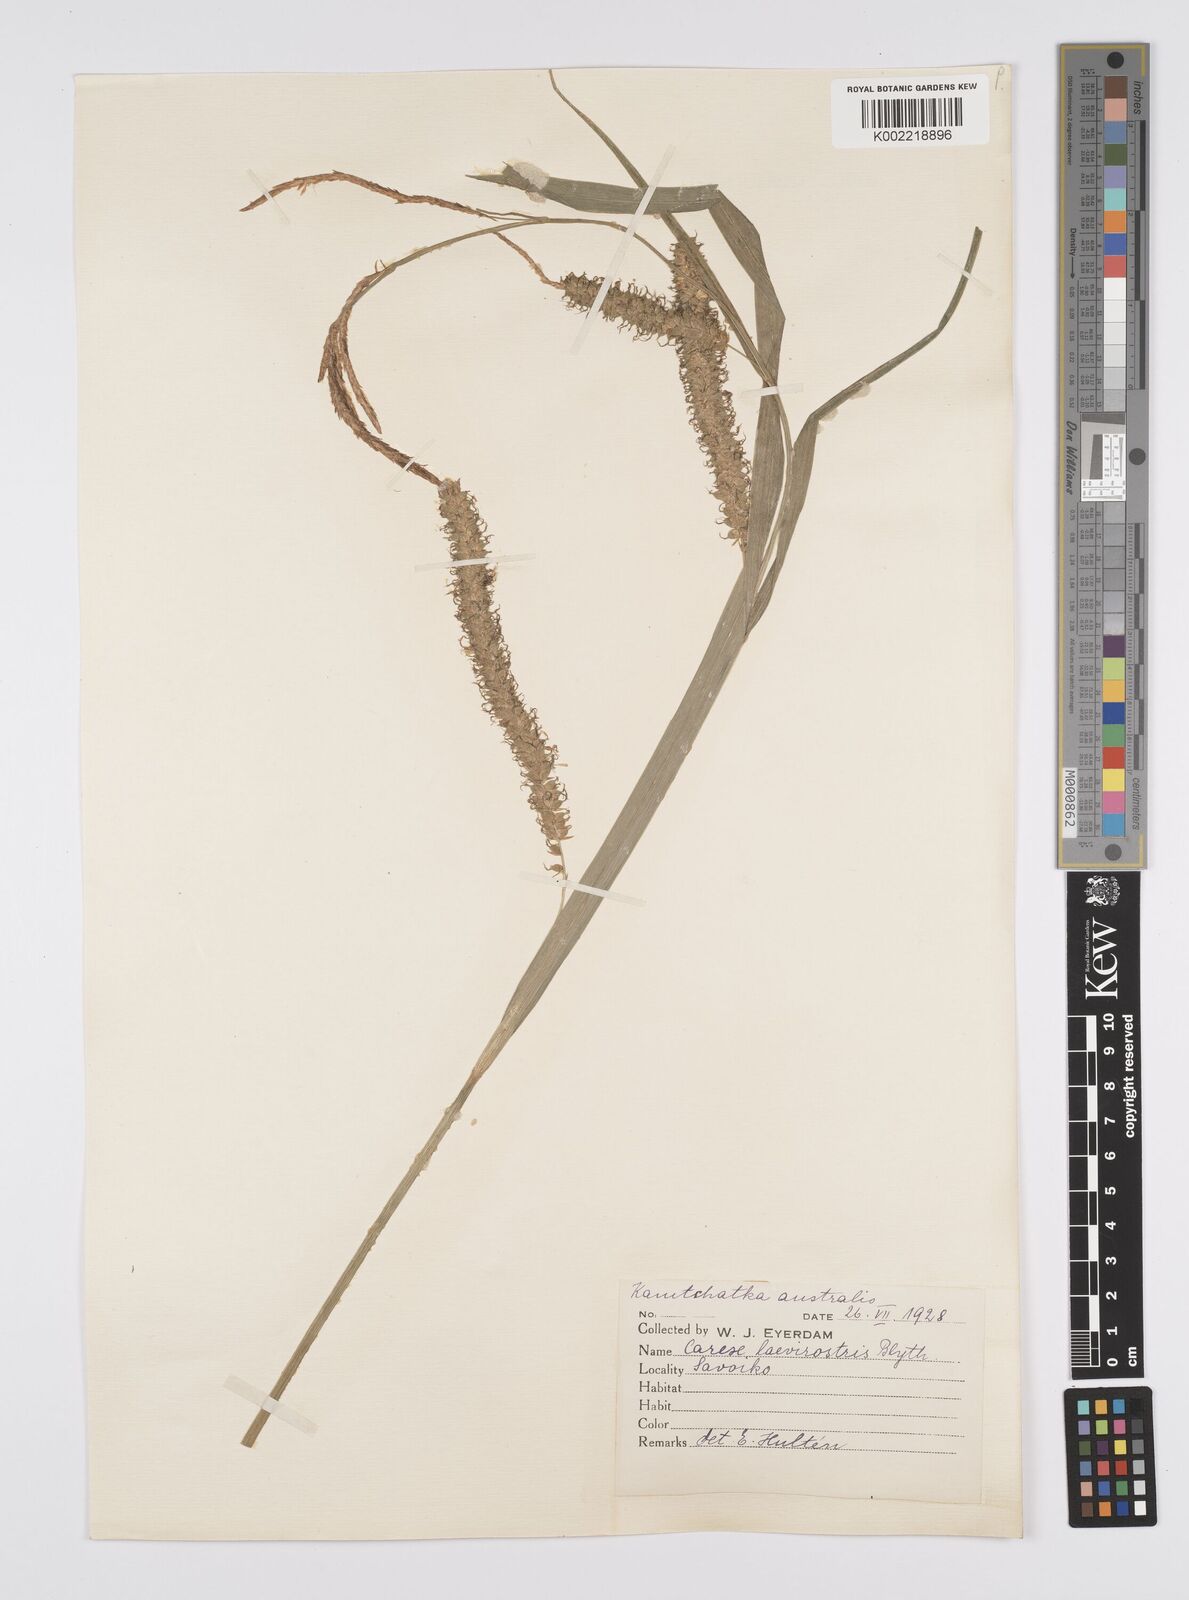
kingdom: Plantae
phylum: Tracheophyta
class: Liliopsida
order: Poales
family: Cyperaceae
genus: Carex
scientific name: Carex utriculata
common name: Beaked sedge
